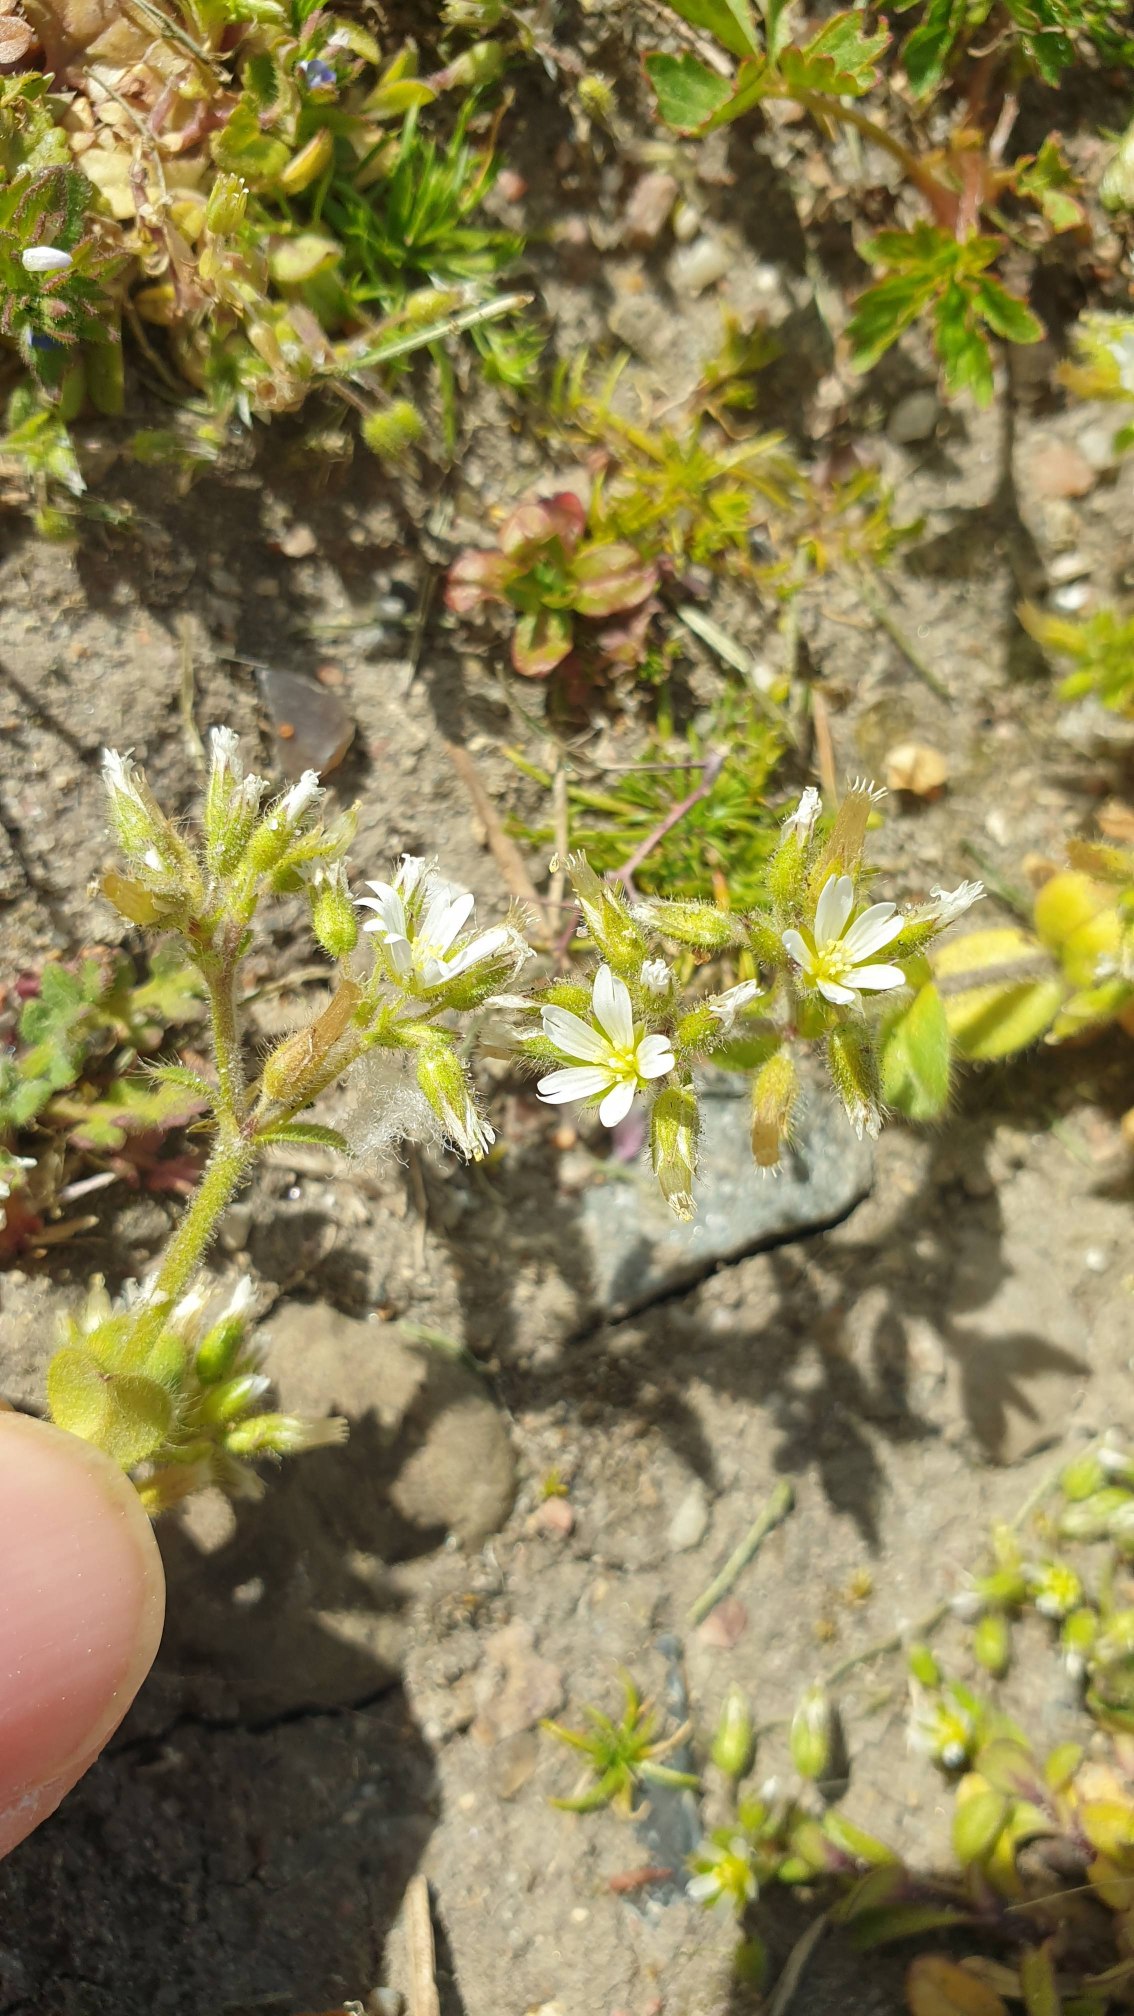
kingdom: Plantae
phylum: Tracheophyta
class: Magnoliopsida
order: Caryophyllales
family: Caryophyllaceae
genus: Cerastium
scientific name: Cerastium glomeratum
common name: Opret hønsetarm
